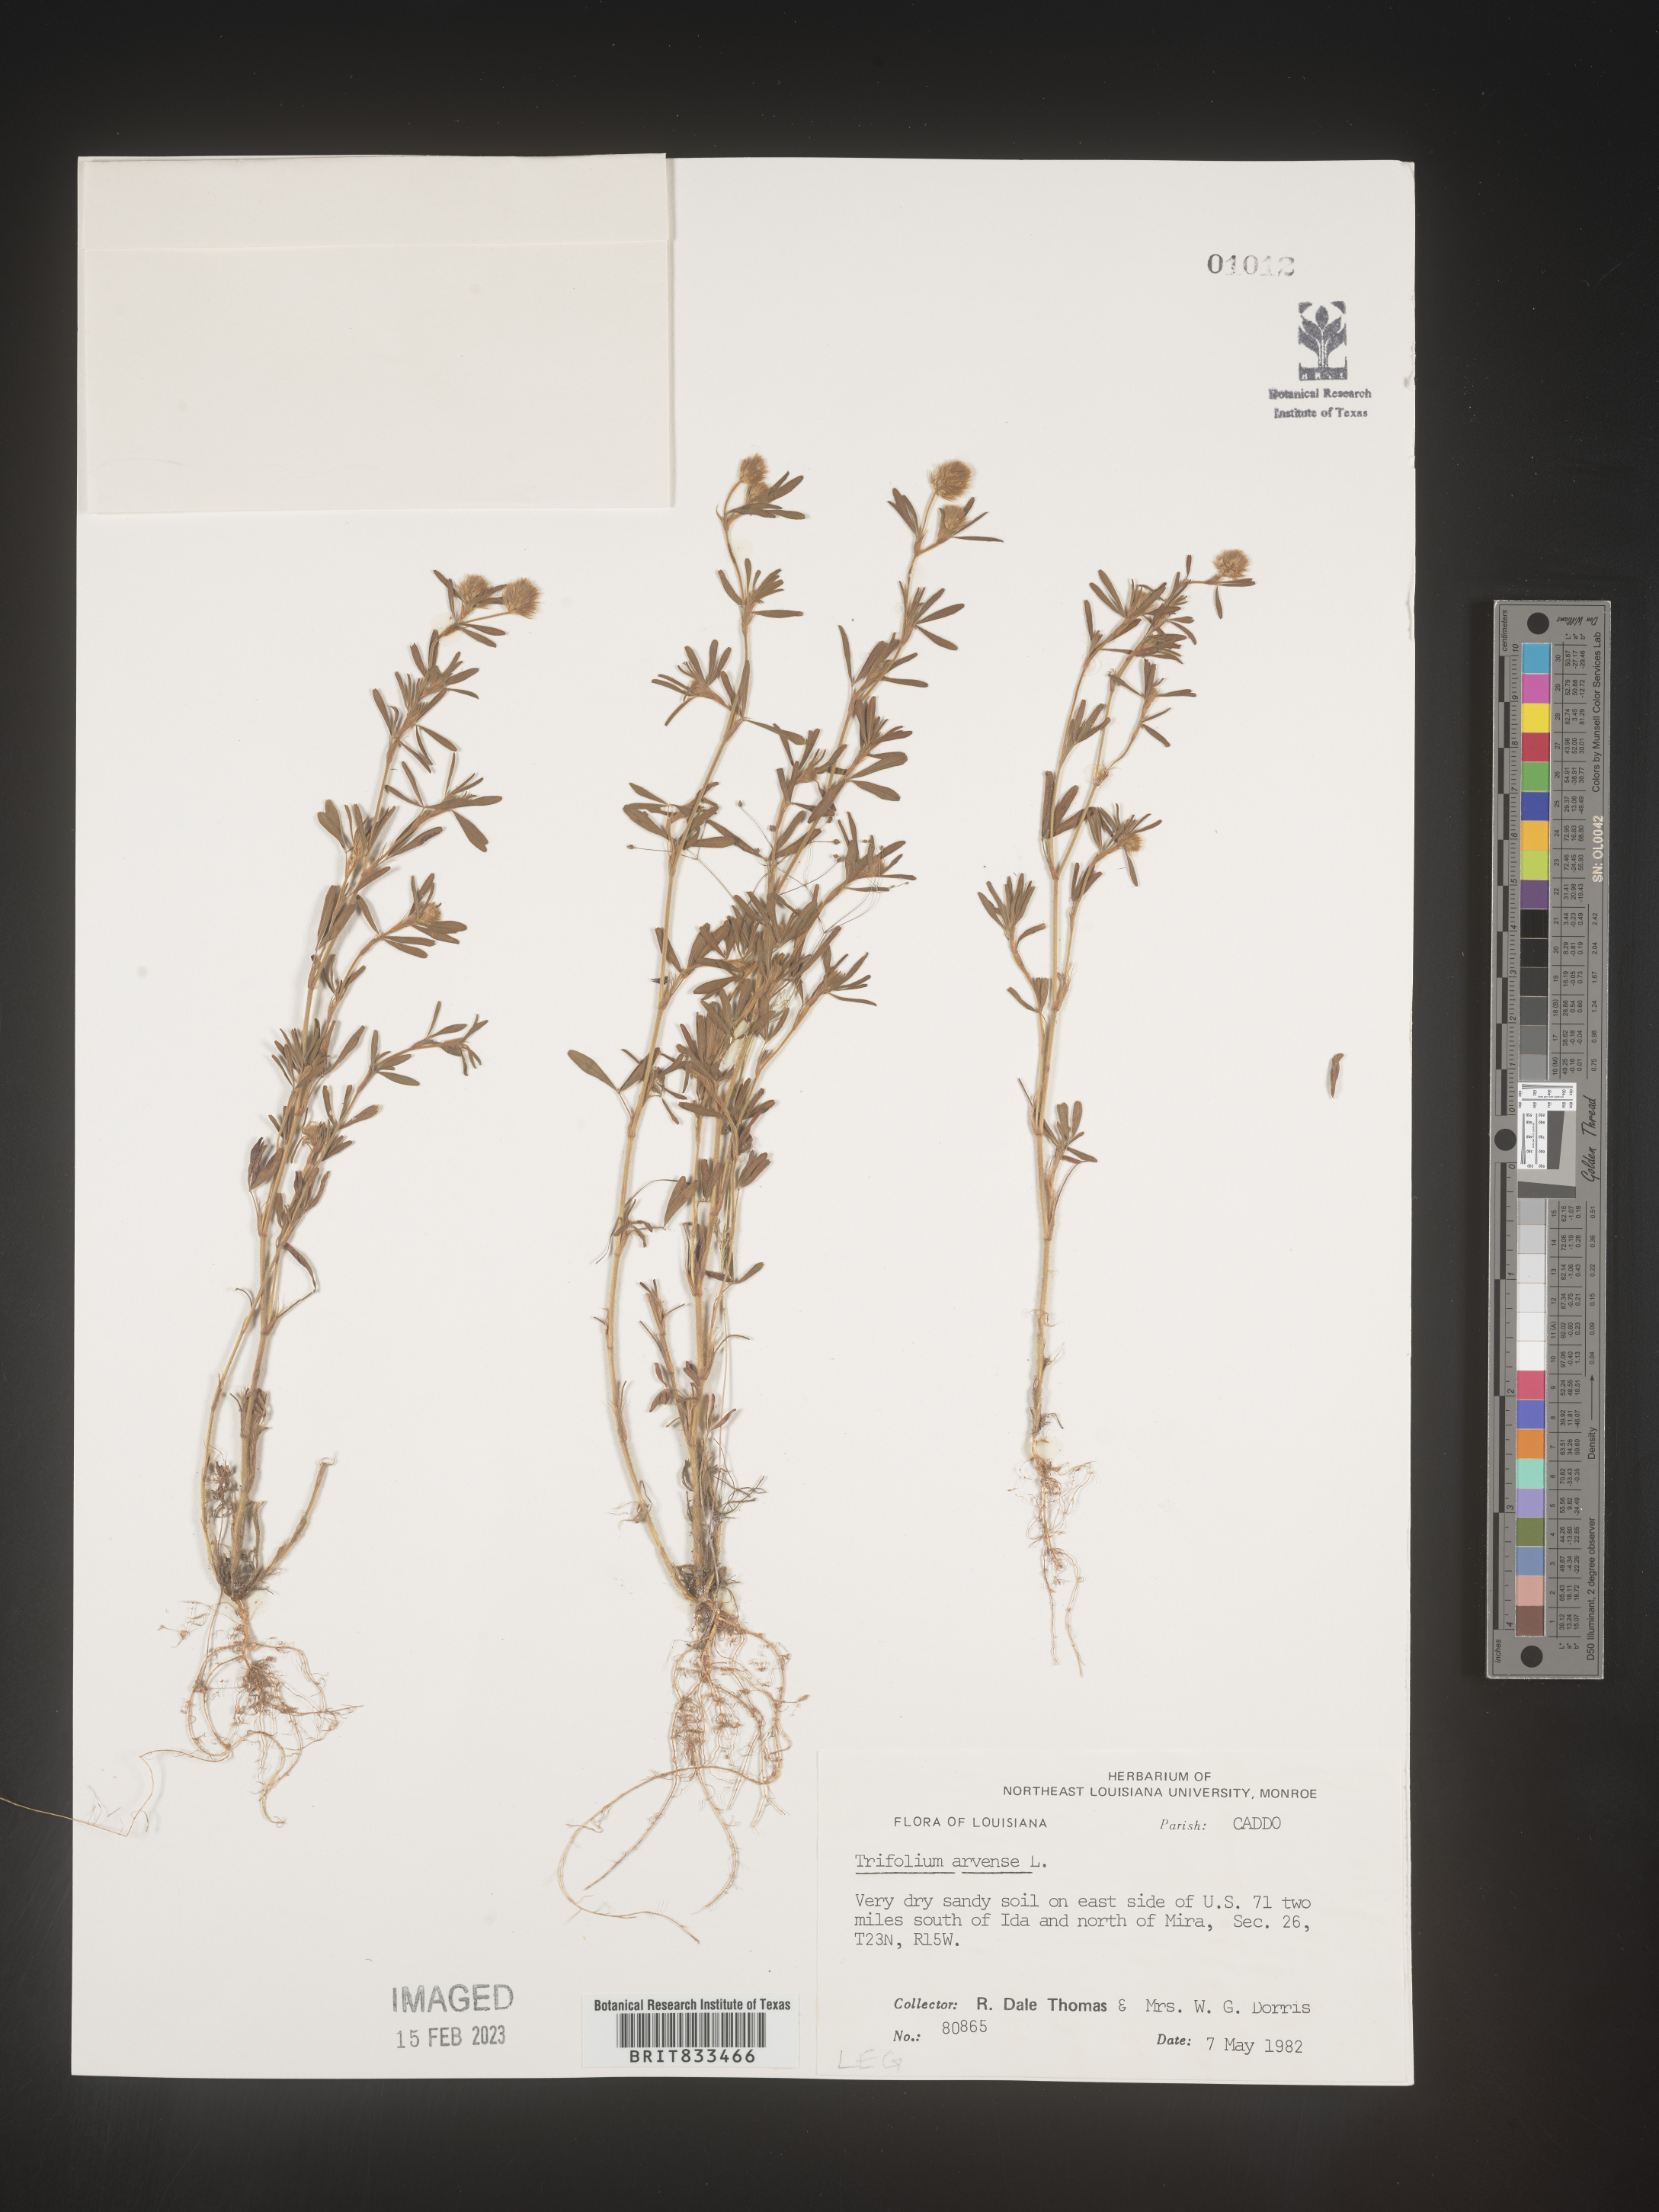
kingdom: Plantae
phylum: Tracheophyta
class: Magnoliopsida
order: Fabales
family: Fabaceae
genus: Trifolium
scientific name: Trifolium arvense
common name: Hare's-foot clover
